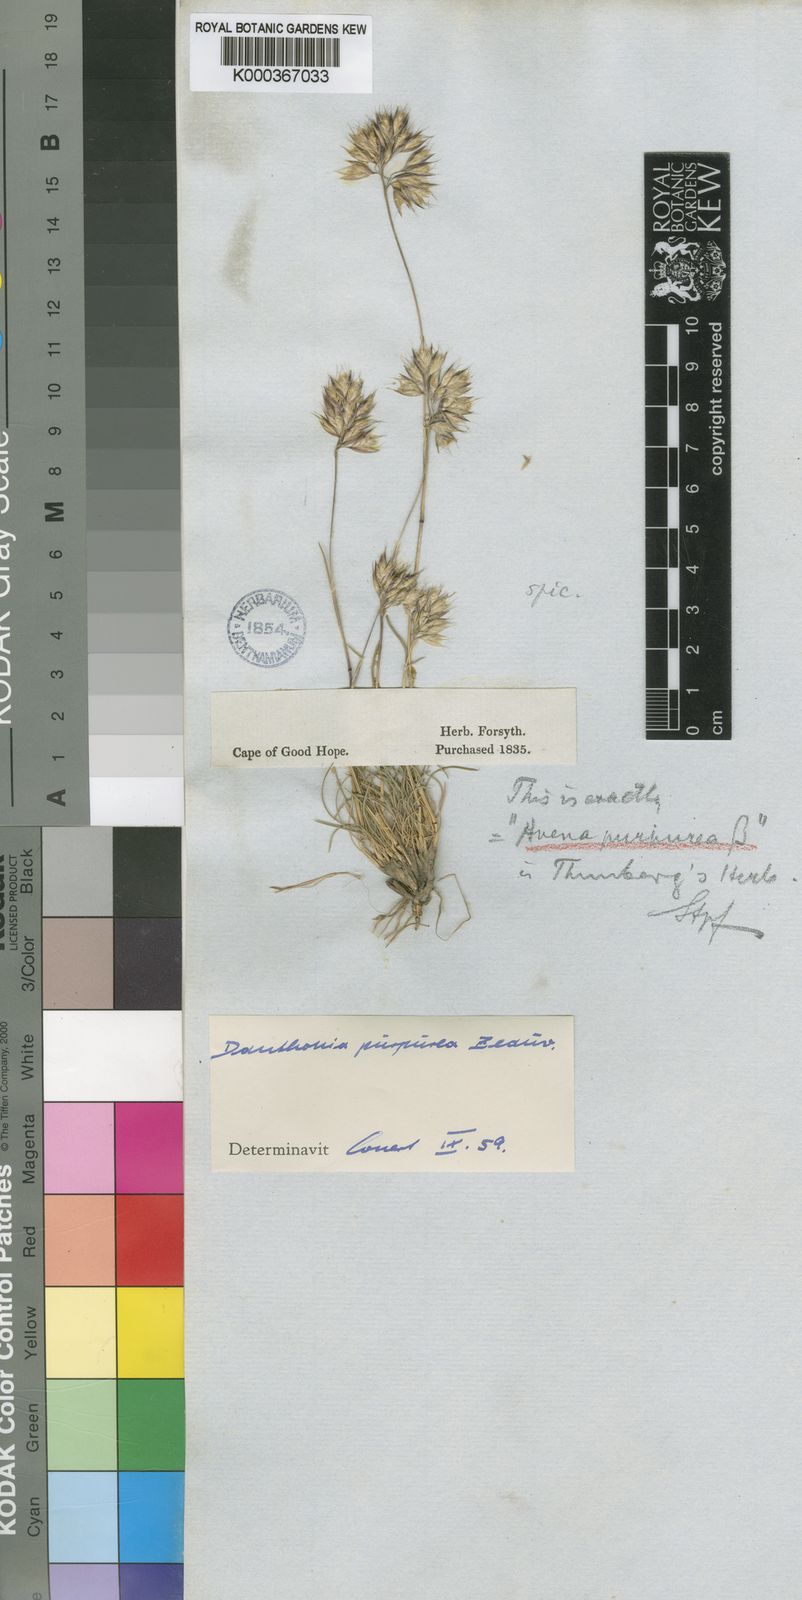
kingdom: Plantae
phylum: Tracheophyta
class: Liliopsida
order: Poales
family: Poaceae
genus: Rytidosperma
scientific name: Rytidosperma
